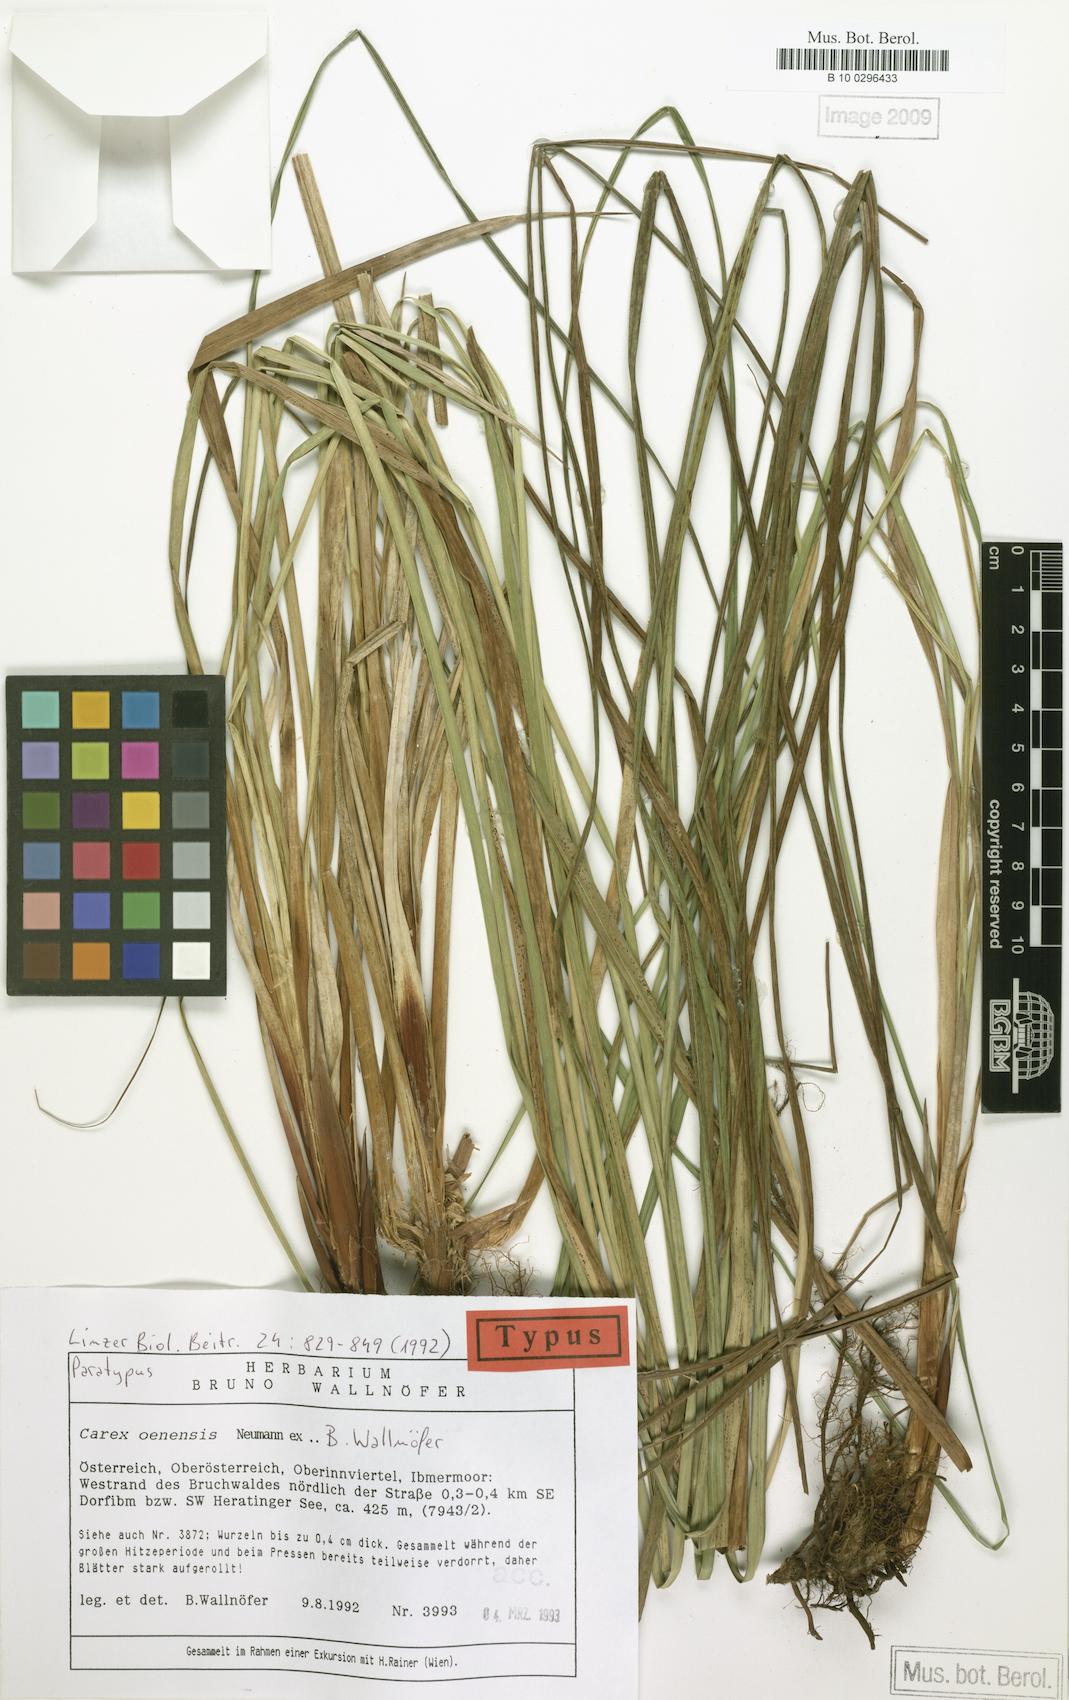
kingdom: Plantae
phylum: Tracheophyta
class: Liliopsida
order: Poales
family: Cyperaceae
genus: Carex
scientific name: Carex oenensis
